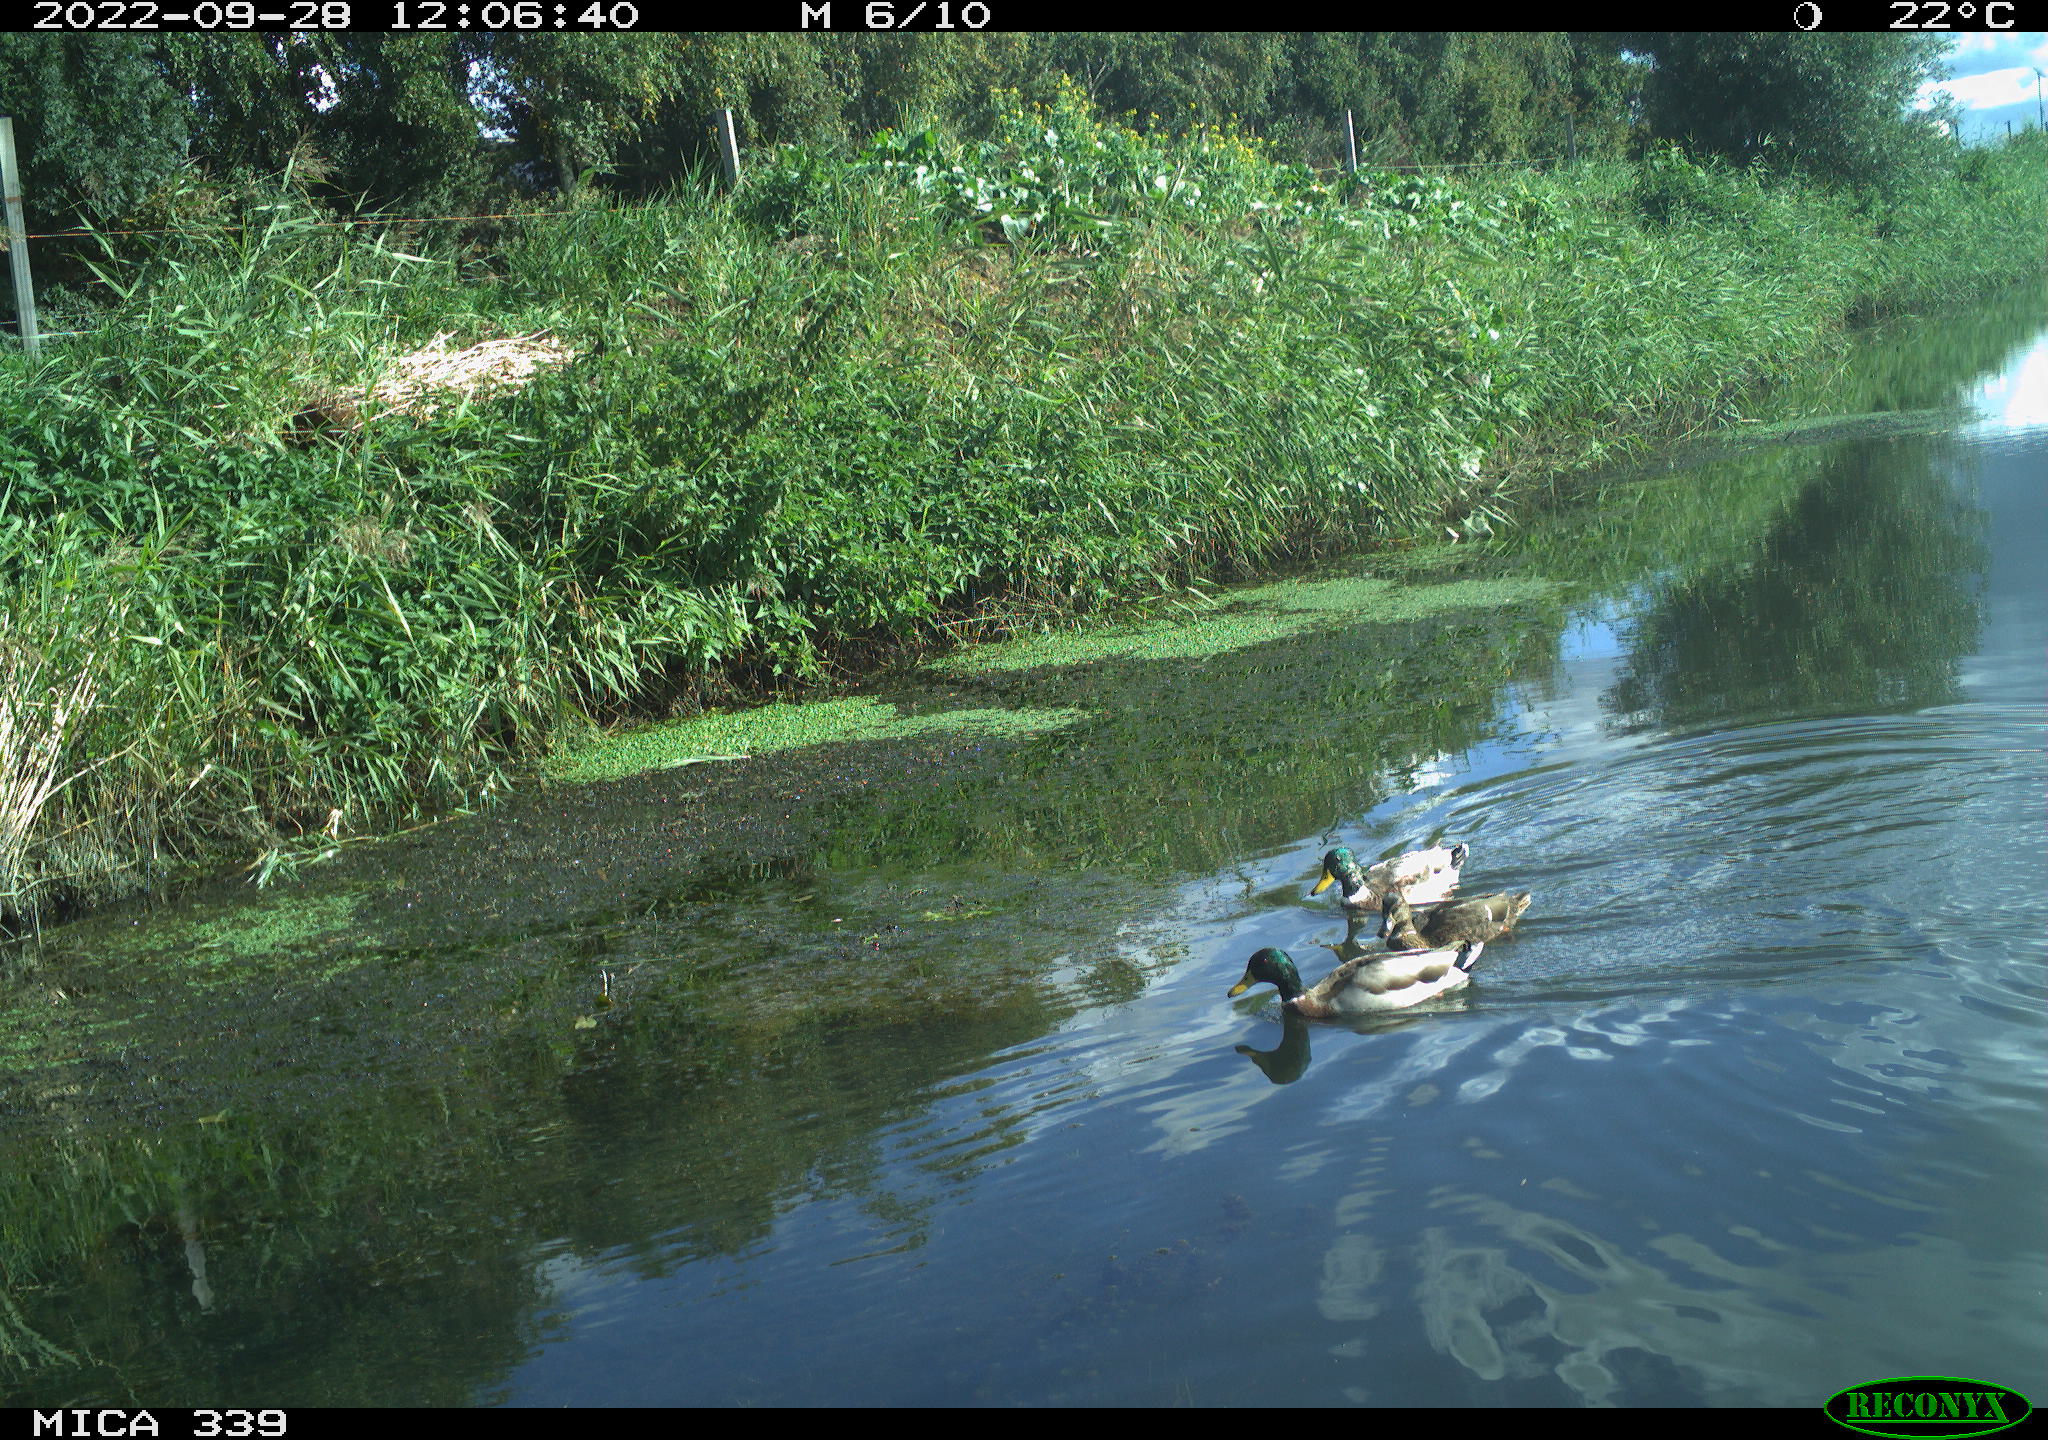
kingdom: Animalia
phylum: Chordata
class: Aves
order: Anseriformes
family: Anatidae
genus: Anas
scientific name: Anas platyrhynchos
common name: Mallard
